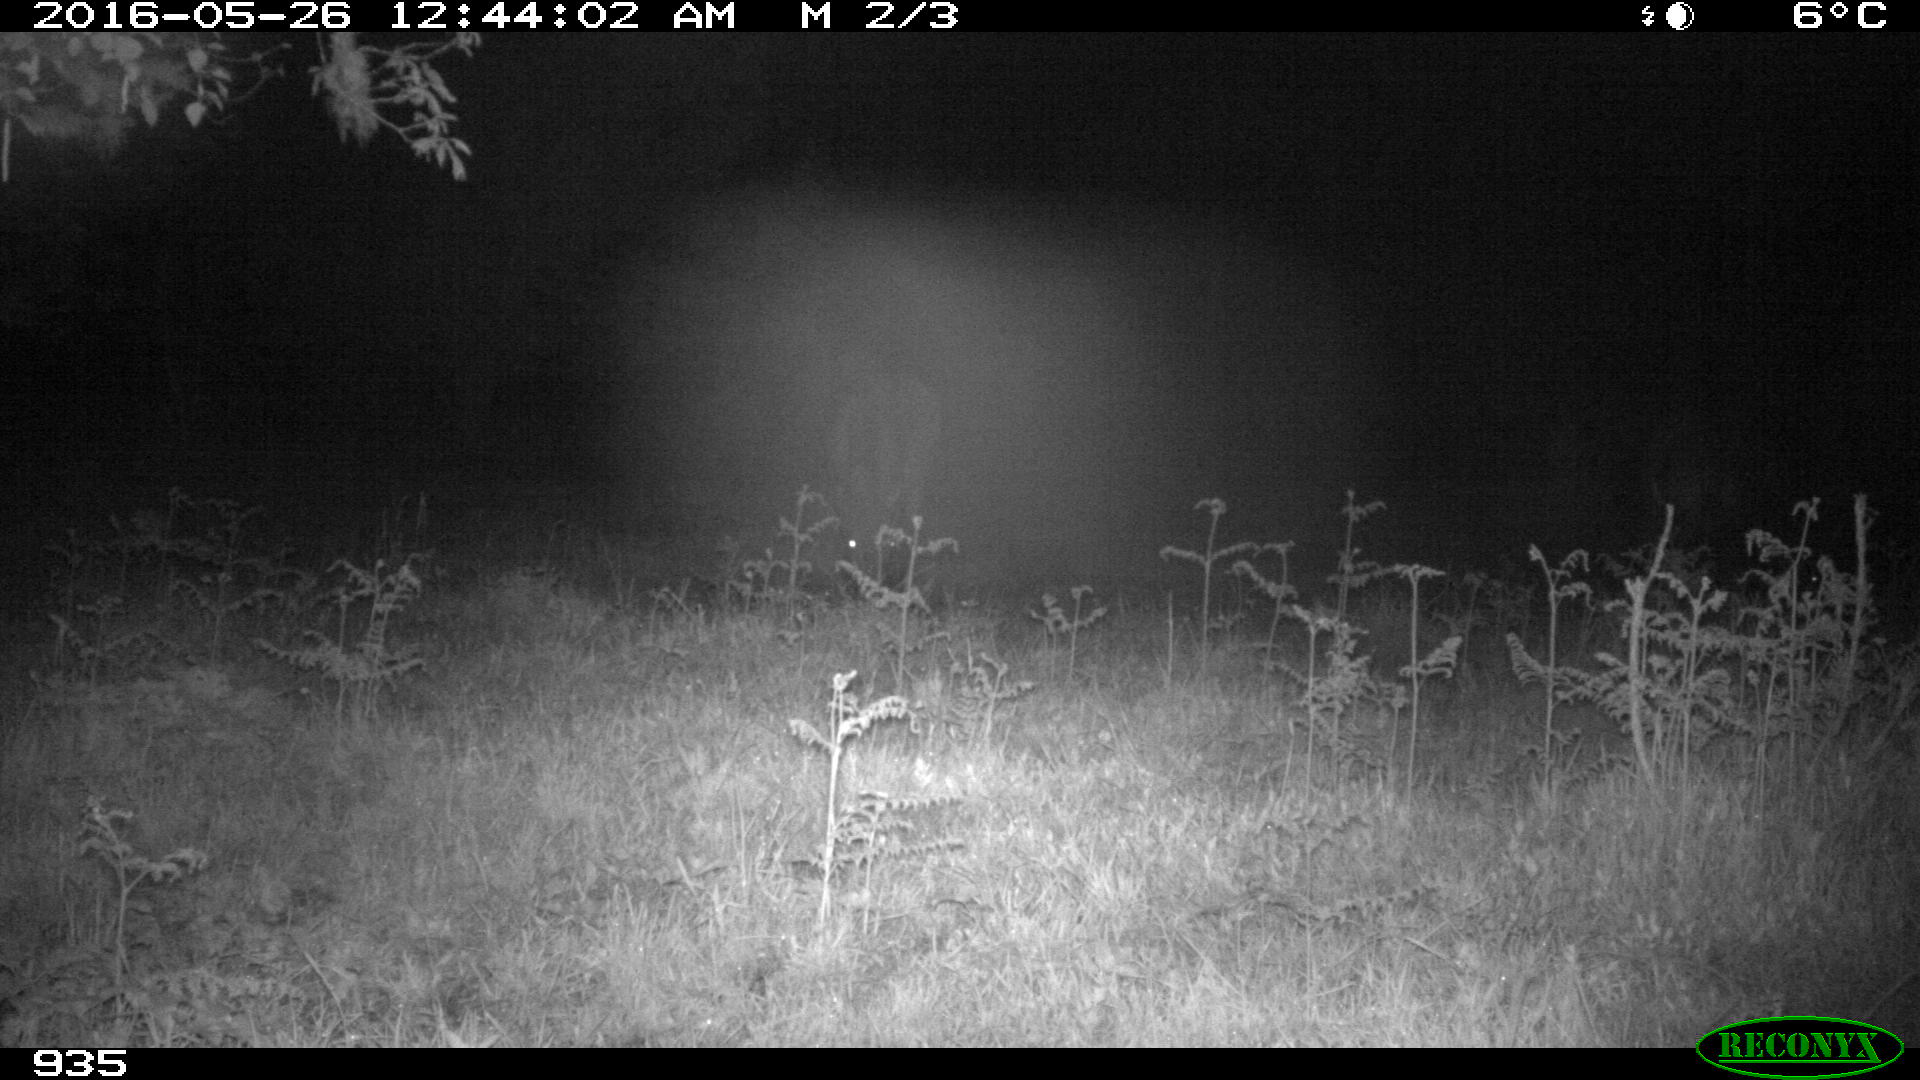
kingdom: Animalia
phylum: Chordata
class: Mammalia
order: Perissodactyla
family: Equidae
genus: Equus
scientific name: Equus caballus
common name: Horse
